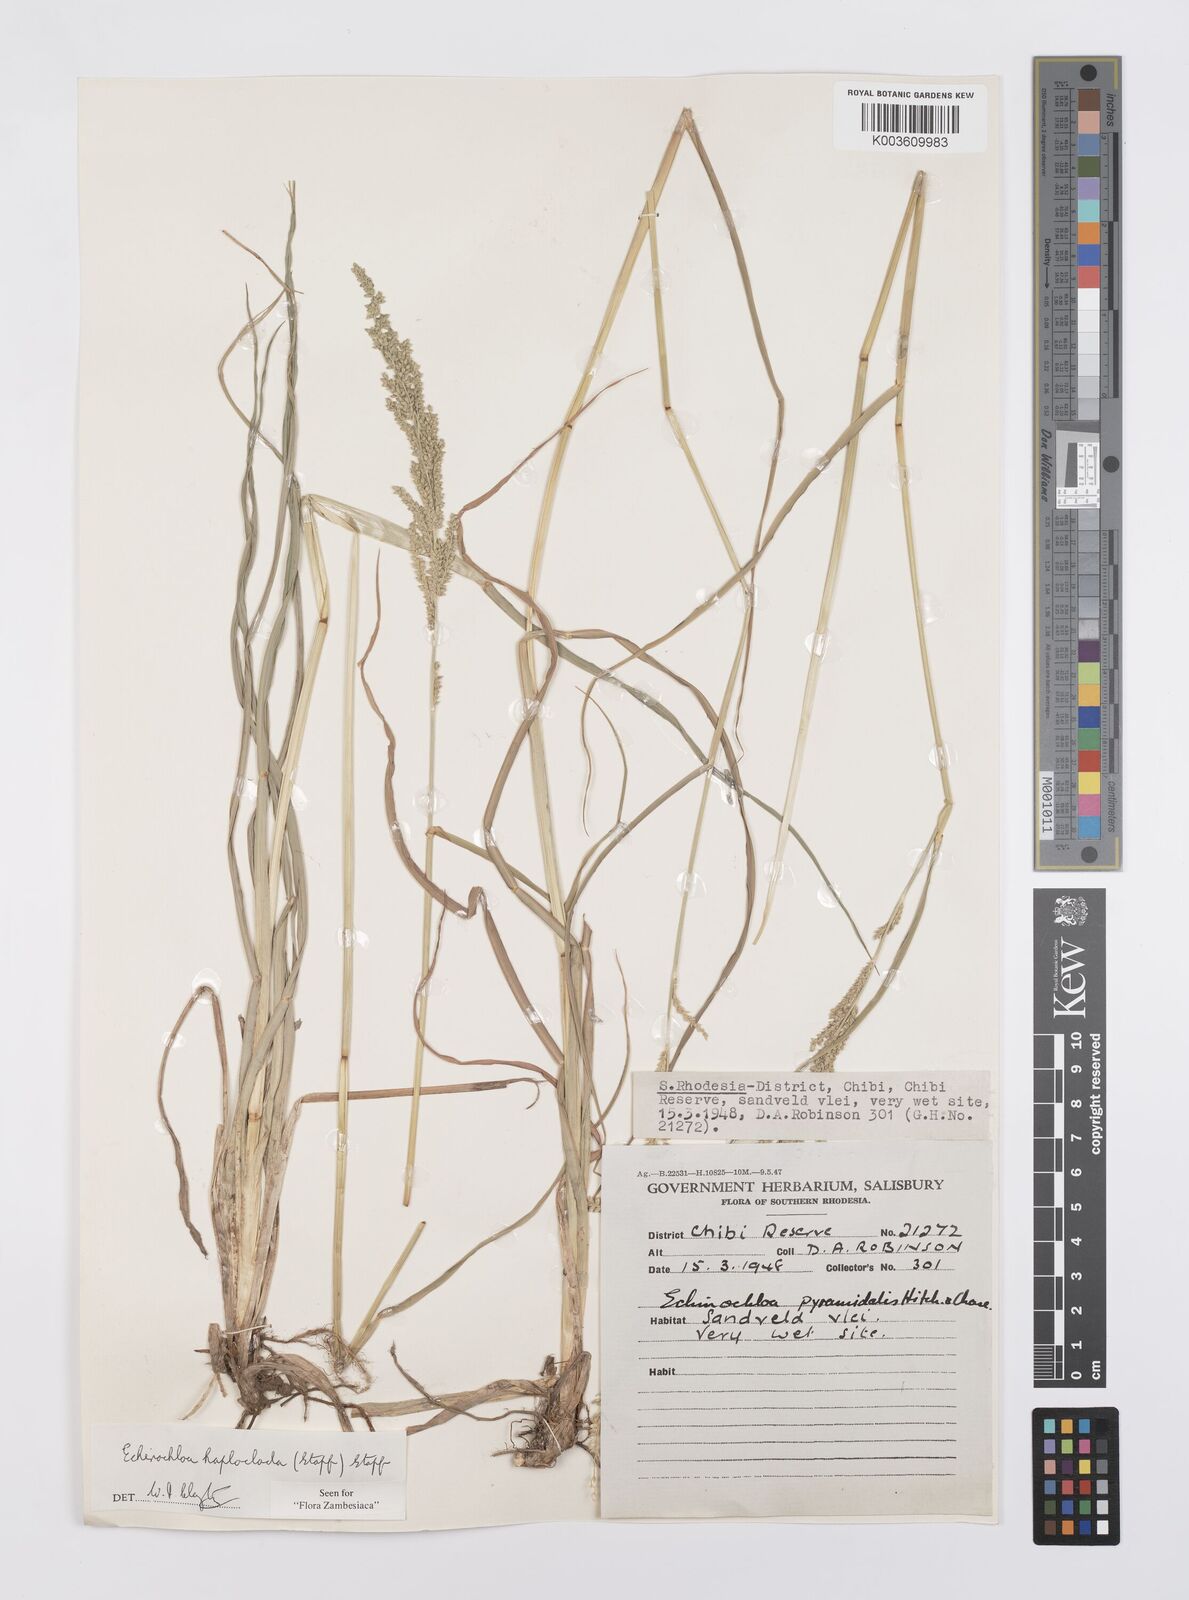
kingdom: Plantae
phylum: Tracheophyta
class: Liliopsida
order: Poales
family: Poaceae
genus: Echinochloa
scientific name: Echinochloa haploclada
